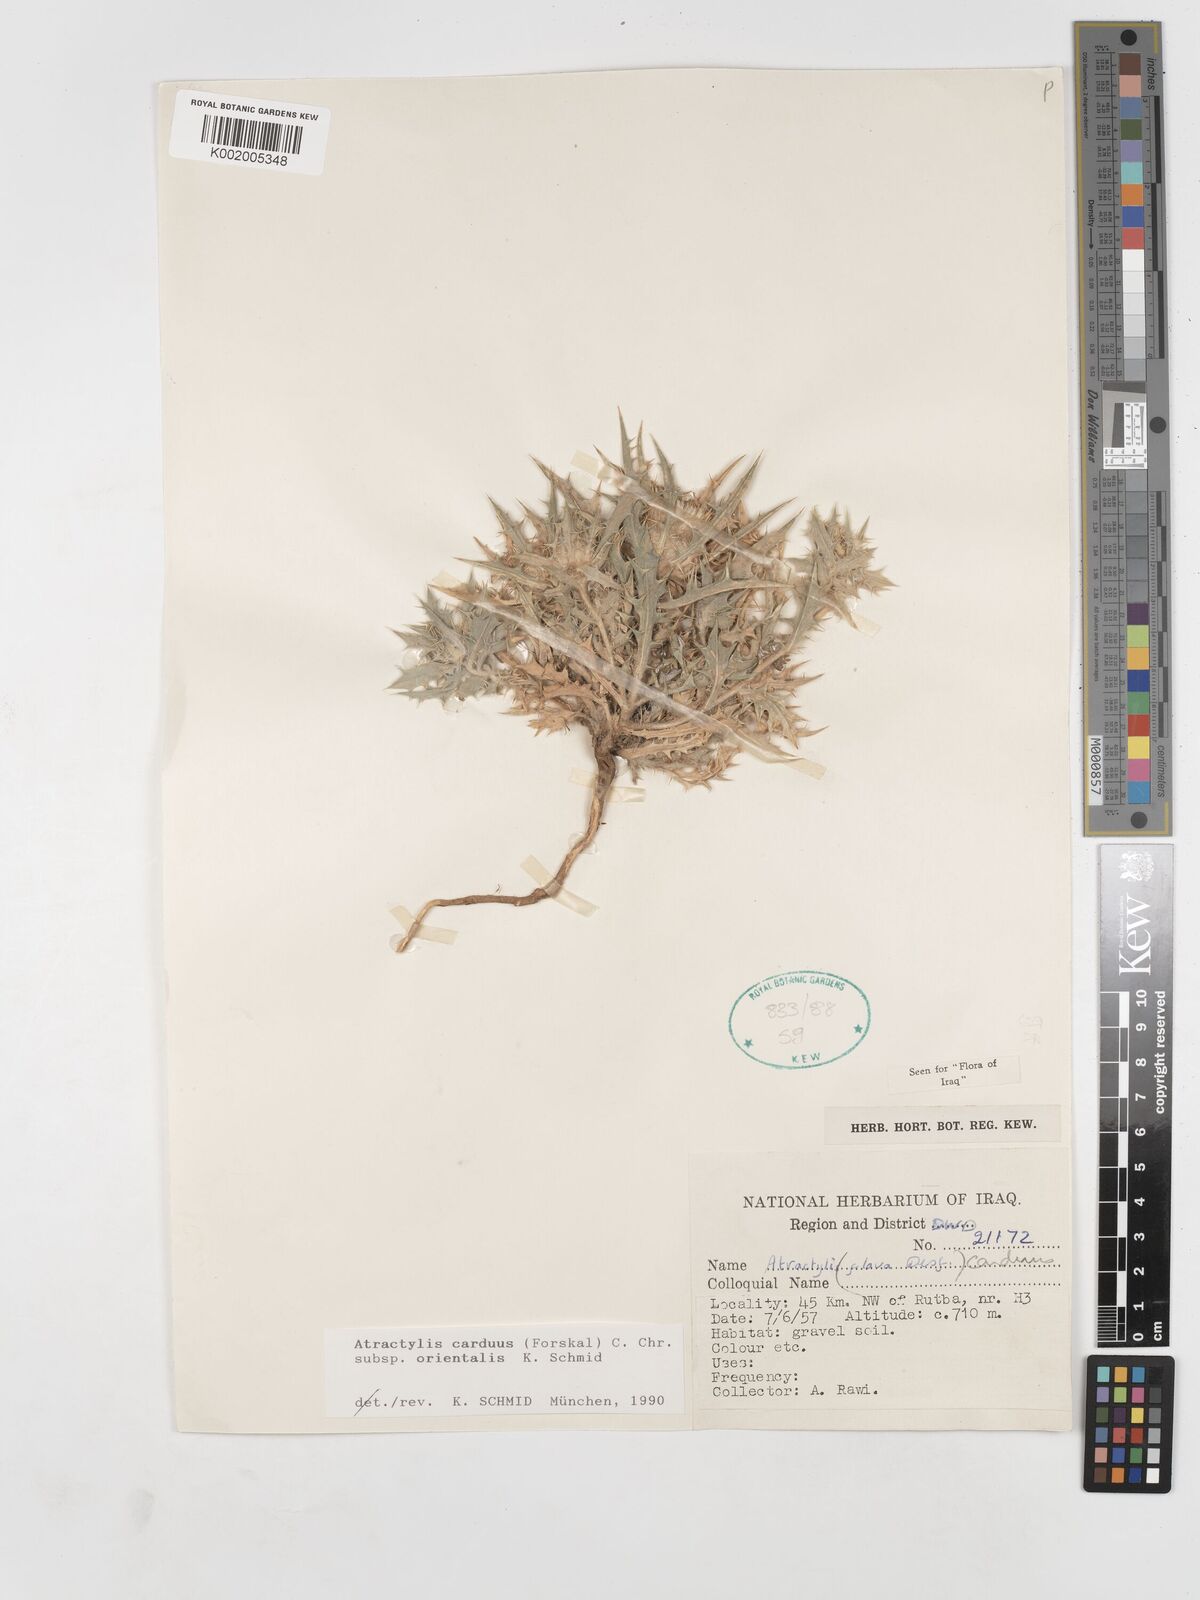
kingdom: Plantae
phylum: Tracheophyta
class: Magnoliopsida
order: Asterales
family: Asteraceae
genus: Atractylis
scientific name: Atractylis carduus
